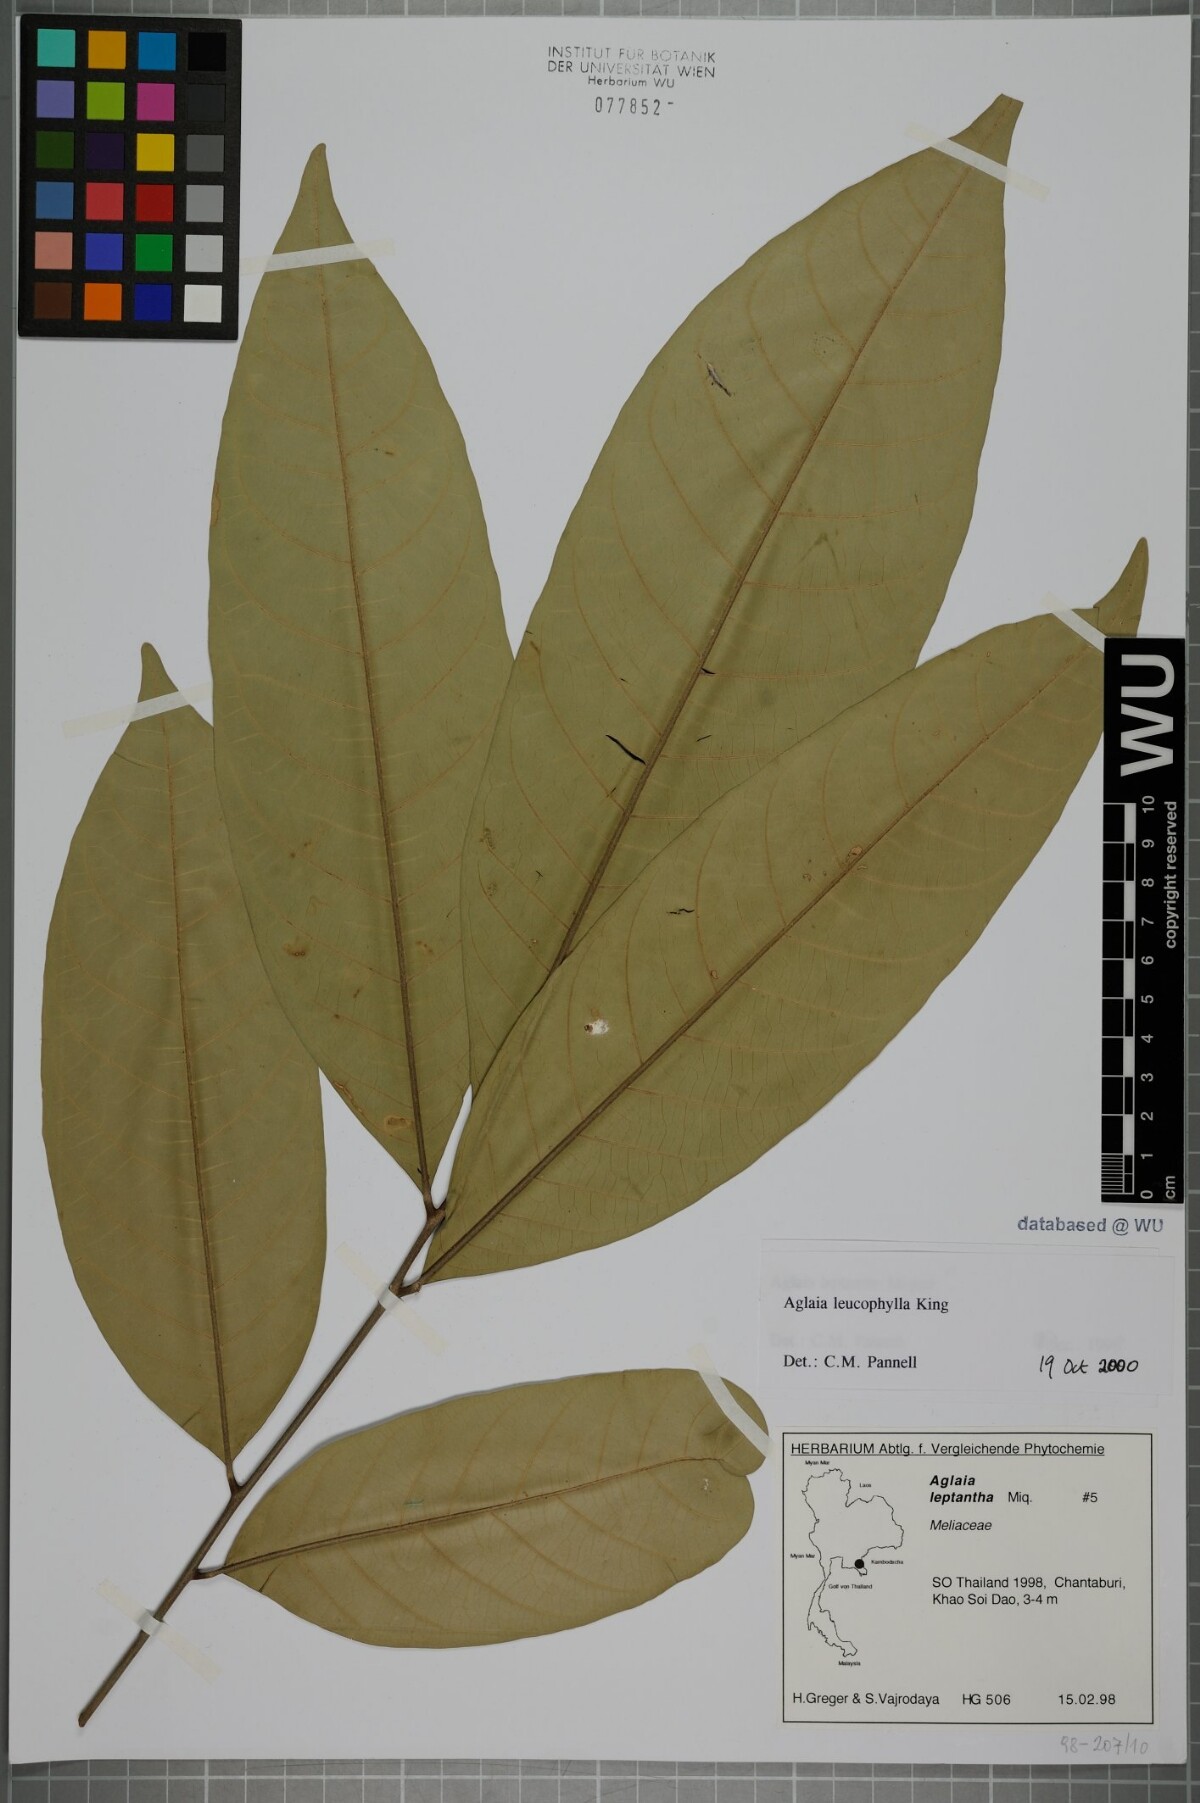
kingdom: Plantae
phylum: Tracheophyta
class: Magnoliopsida
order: Sapindales
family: Meliaceae
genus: Aglaia
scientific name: Aglaia leucophylla
